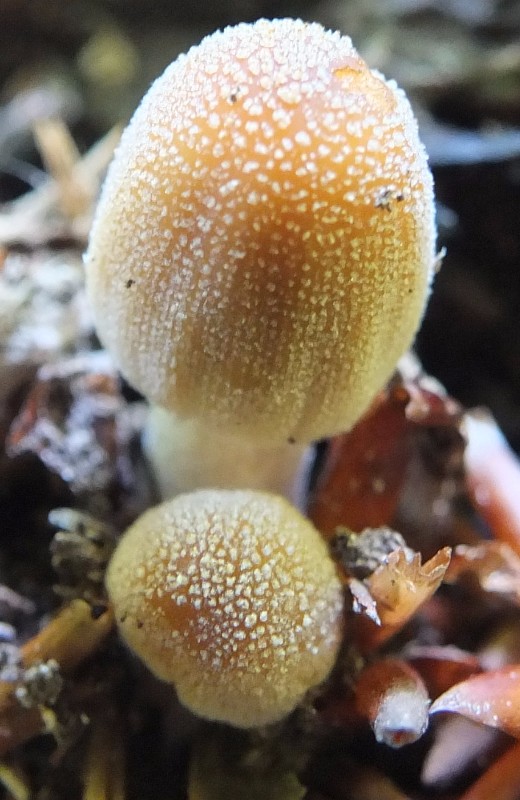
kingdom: Fungi
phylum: Basidiomycota
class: Agaricomycetes
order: Agaricales
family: Psathyrellaceae
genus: Coprinellus
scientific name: Coprinellus
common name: blækhat
